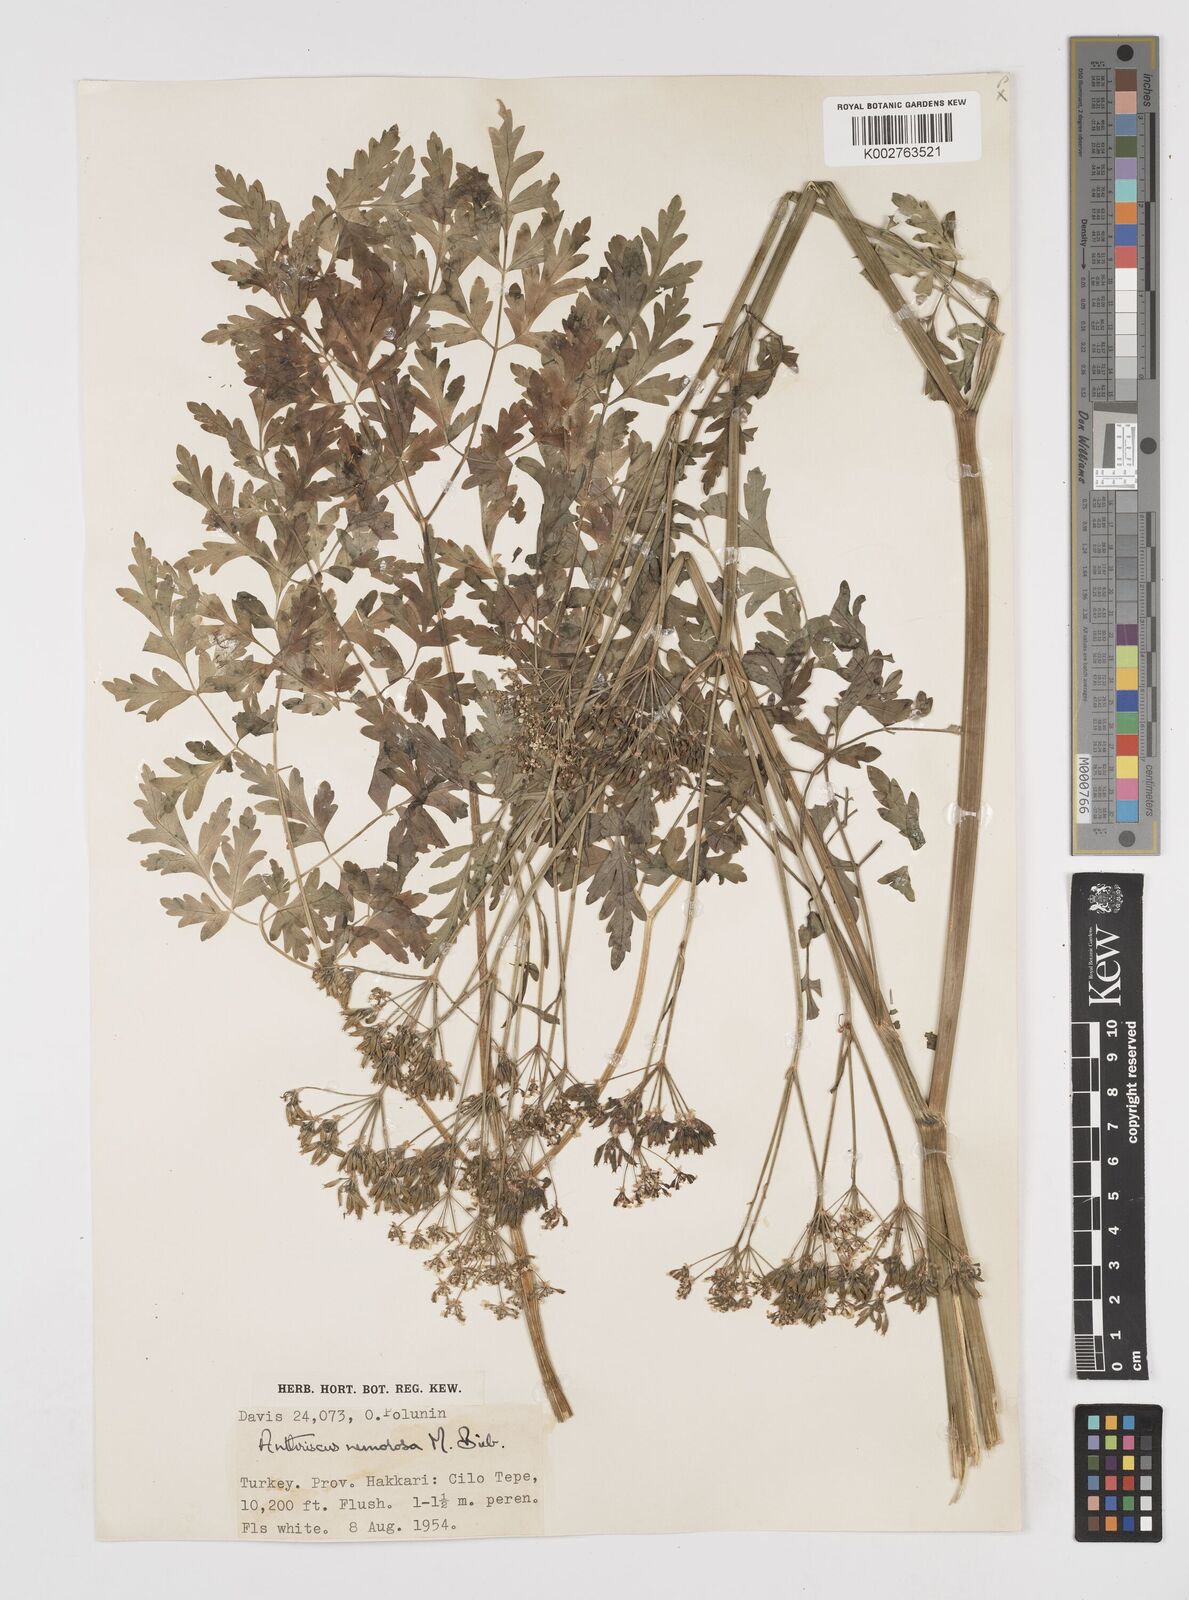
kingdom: Plantae
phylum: Tracheophyta
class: Magnoliopsida
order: Apiales
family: Apiaceae
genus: Anthriscus
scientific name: Anthriscus sylvestris
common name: Cow parsley
